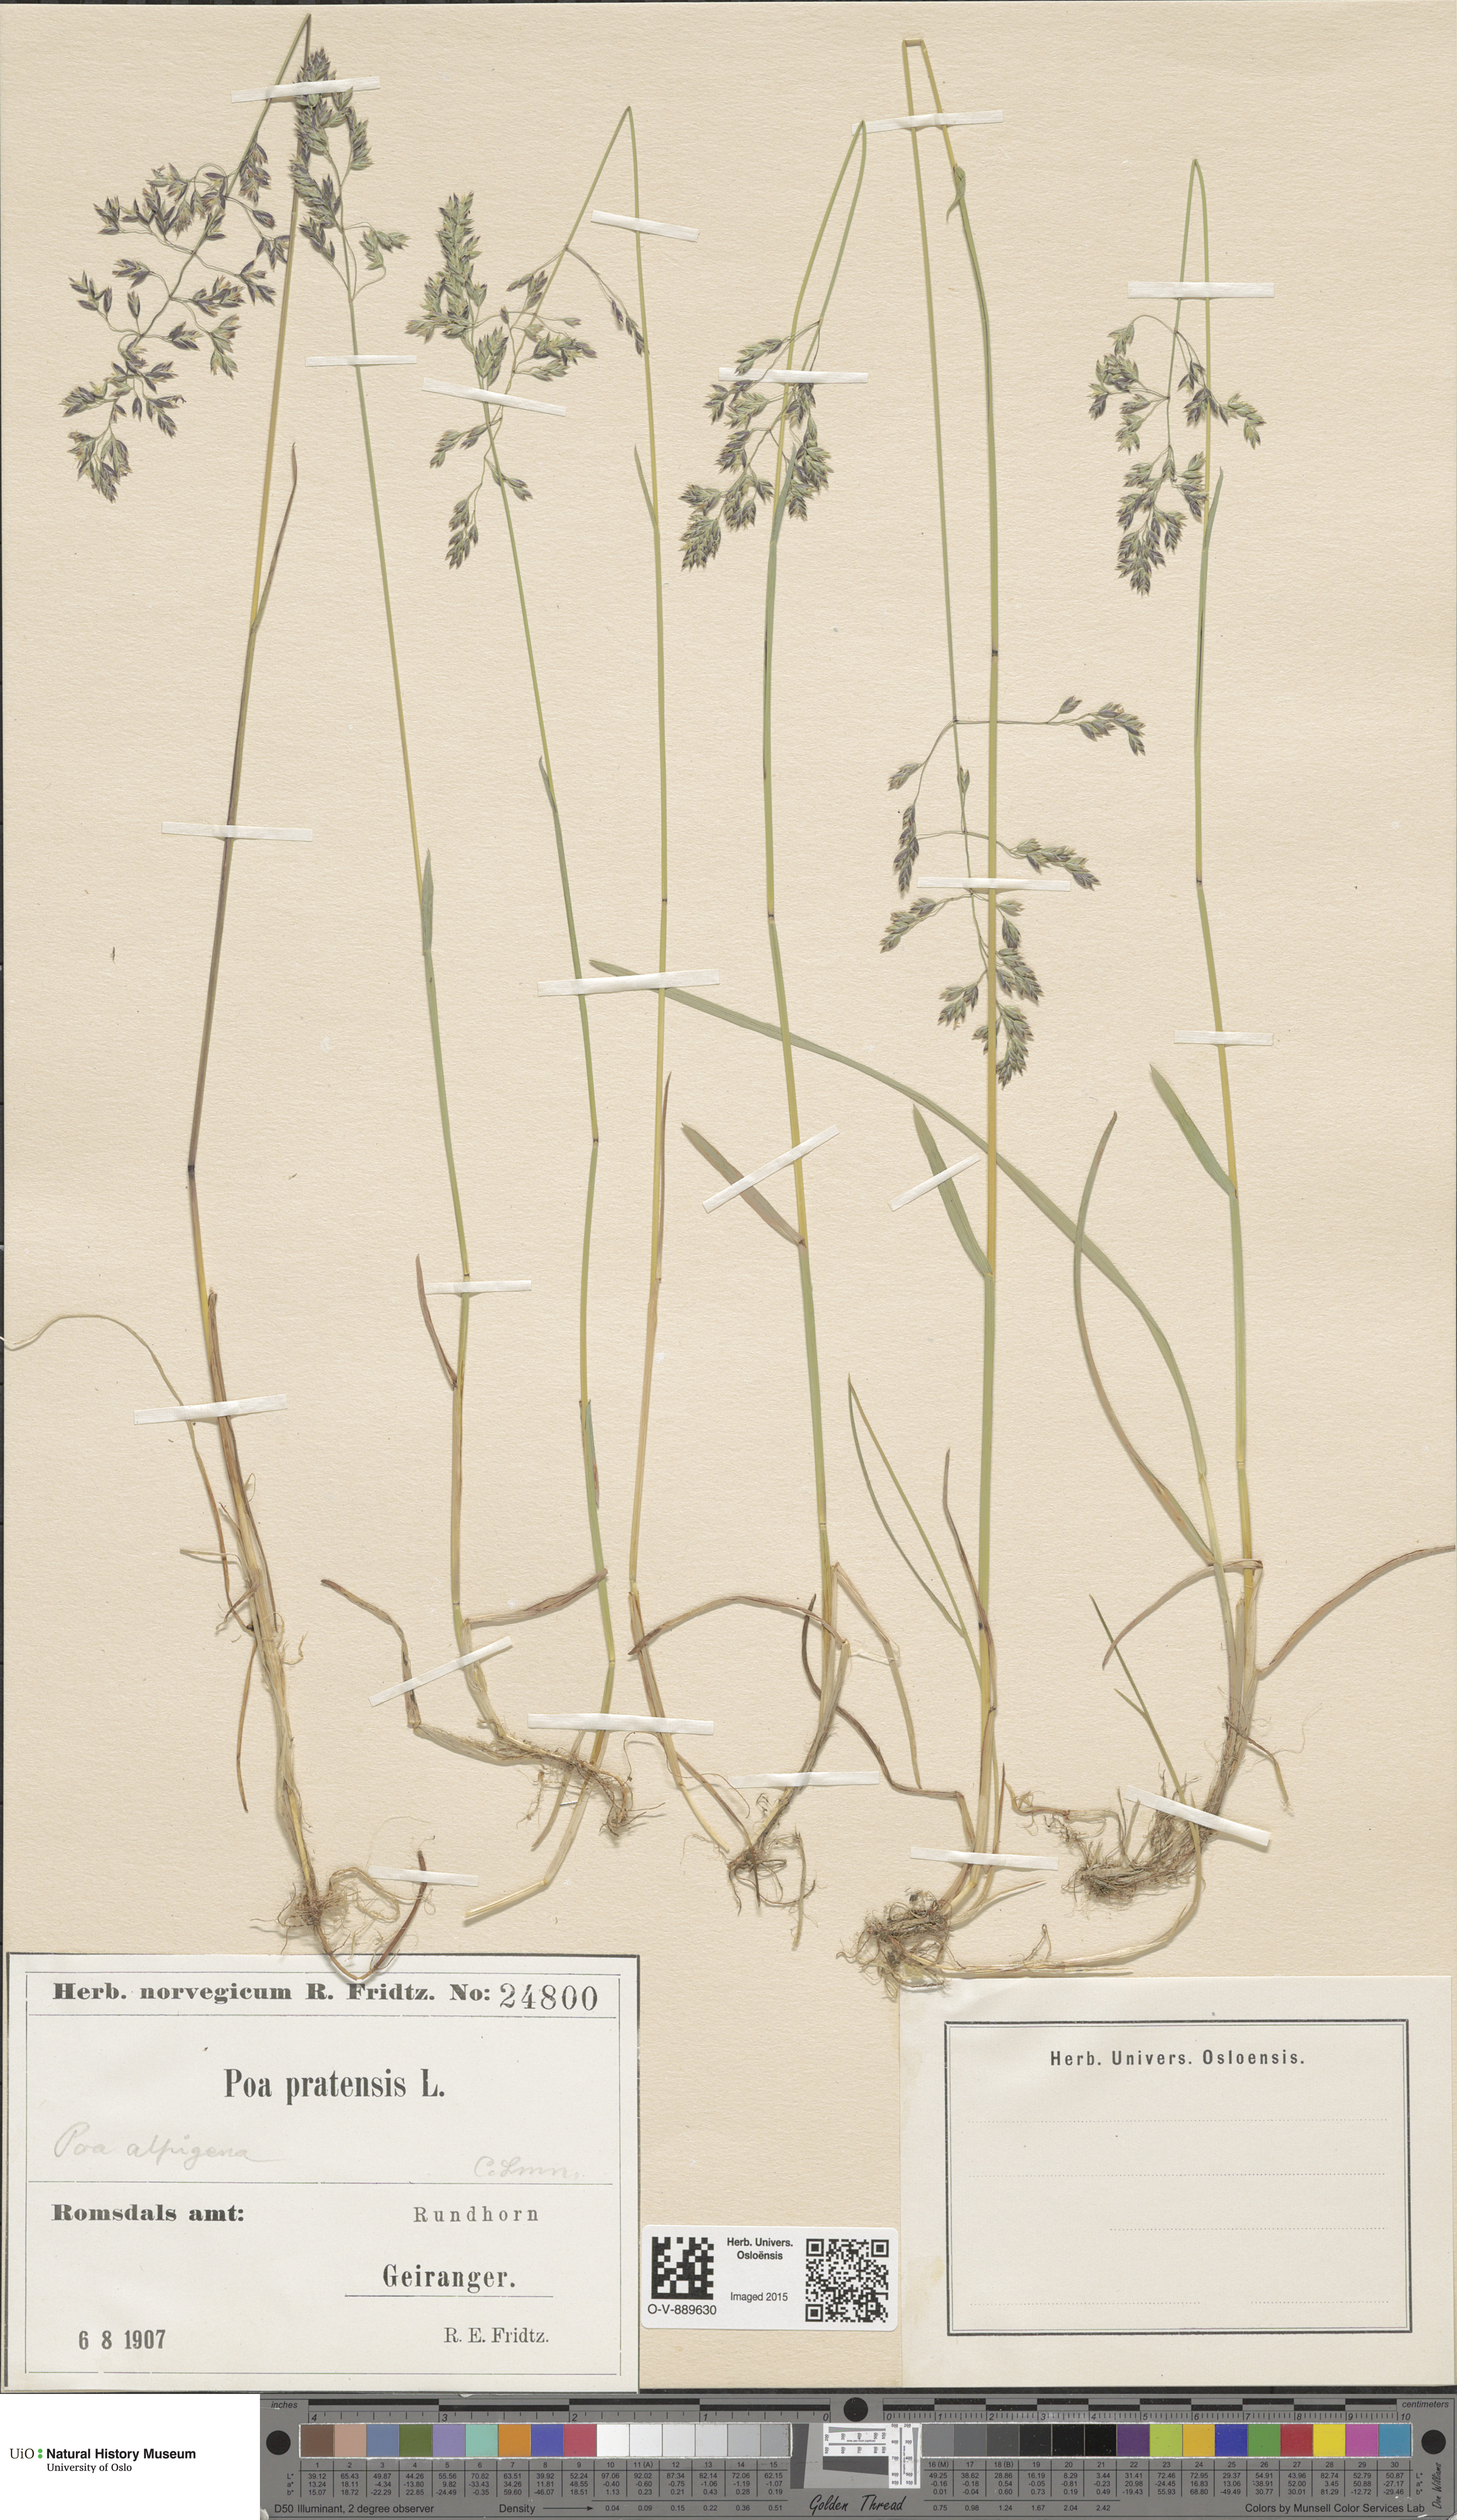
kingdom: Plantae
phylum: Tracheophyta
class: Liliopsida
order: Poales
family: Poaceae
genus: Poa
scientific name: Poa alpigena
